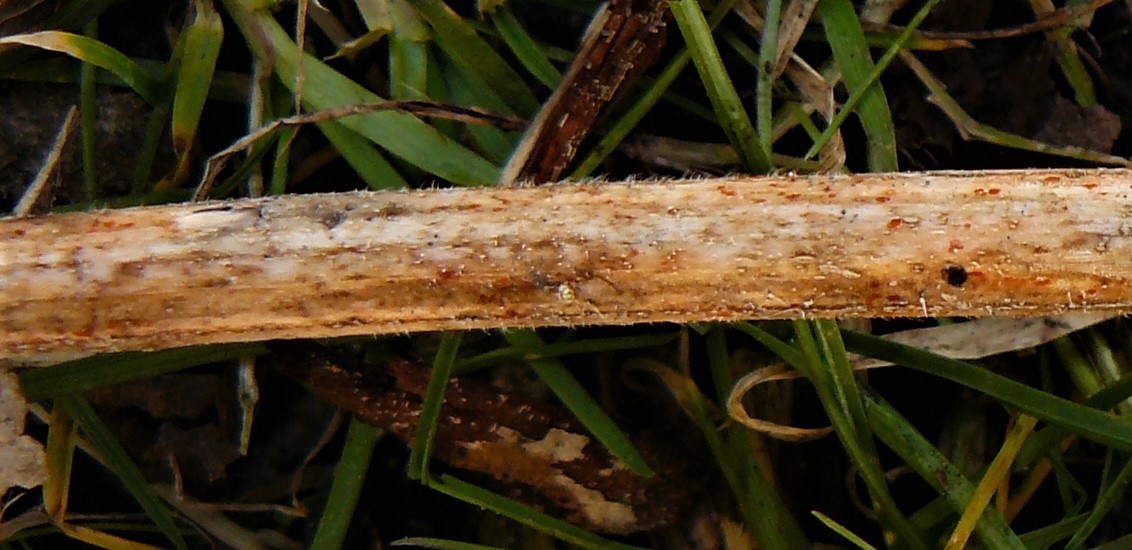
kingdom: Fungi
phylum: Ascomycota
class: Leotiomycetes
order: Helotiales
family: Calloriaceae
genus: Calloria
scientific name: Calloria urticae
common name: nælde-orangeskive
